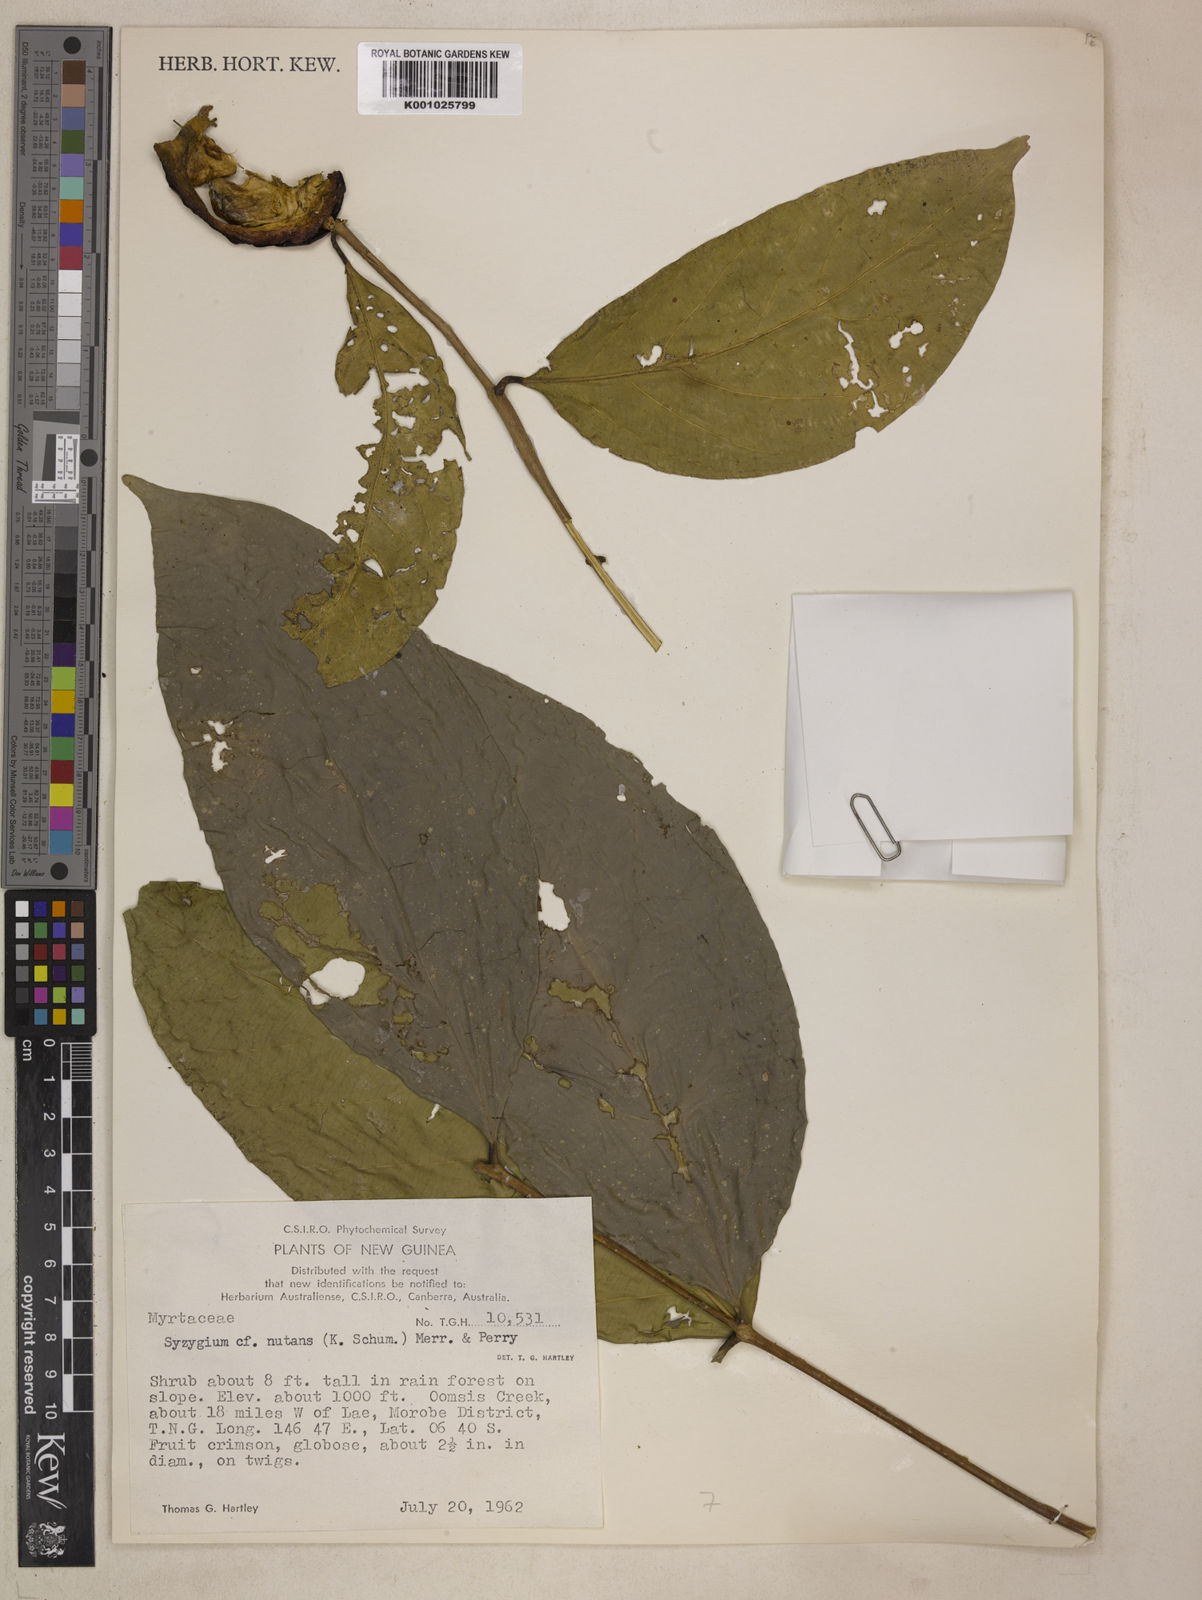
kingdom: Plantae
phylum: Tracheophyta
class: Magnoliopsida
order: Myrtales
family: Myrtaceae
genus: Syzygium
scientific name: Syzygium nutans
